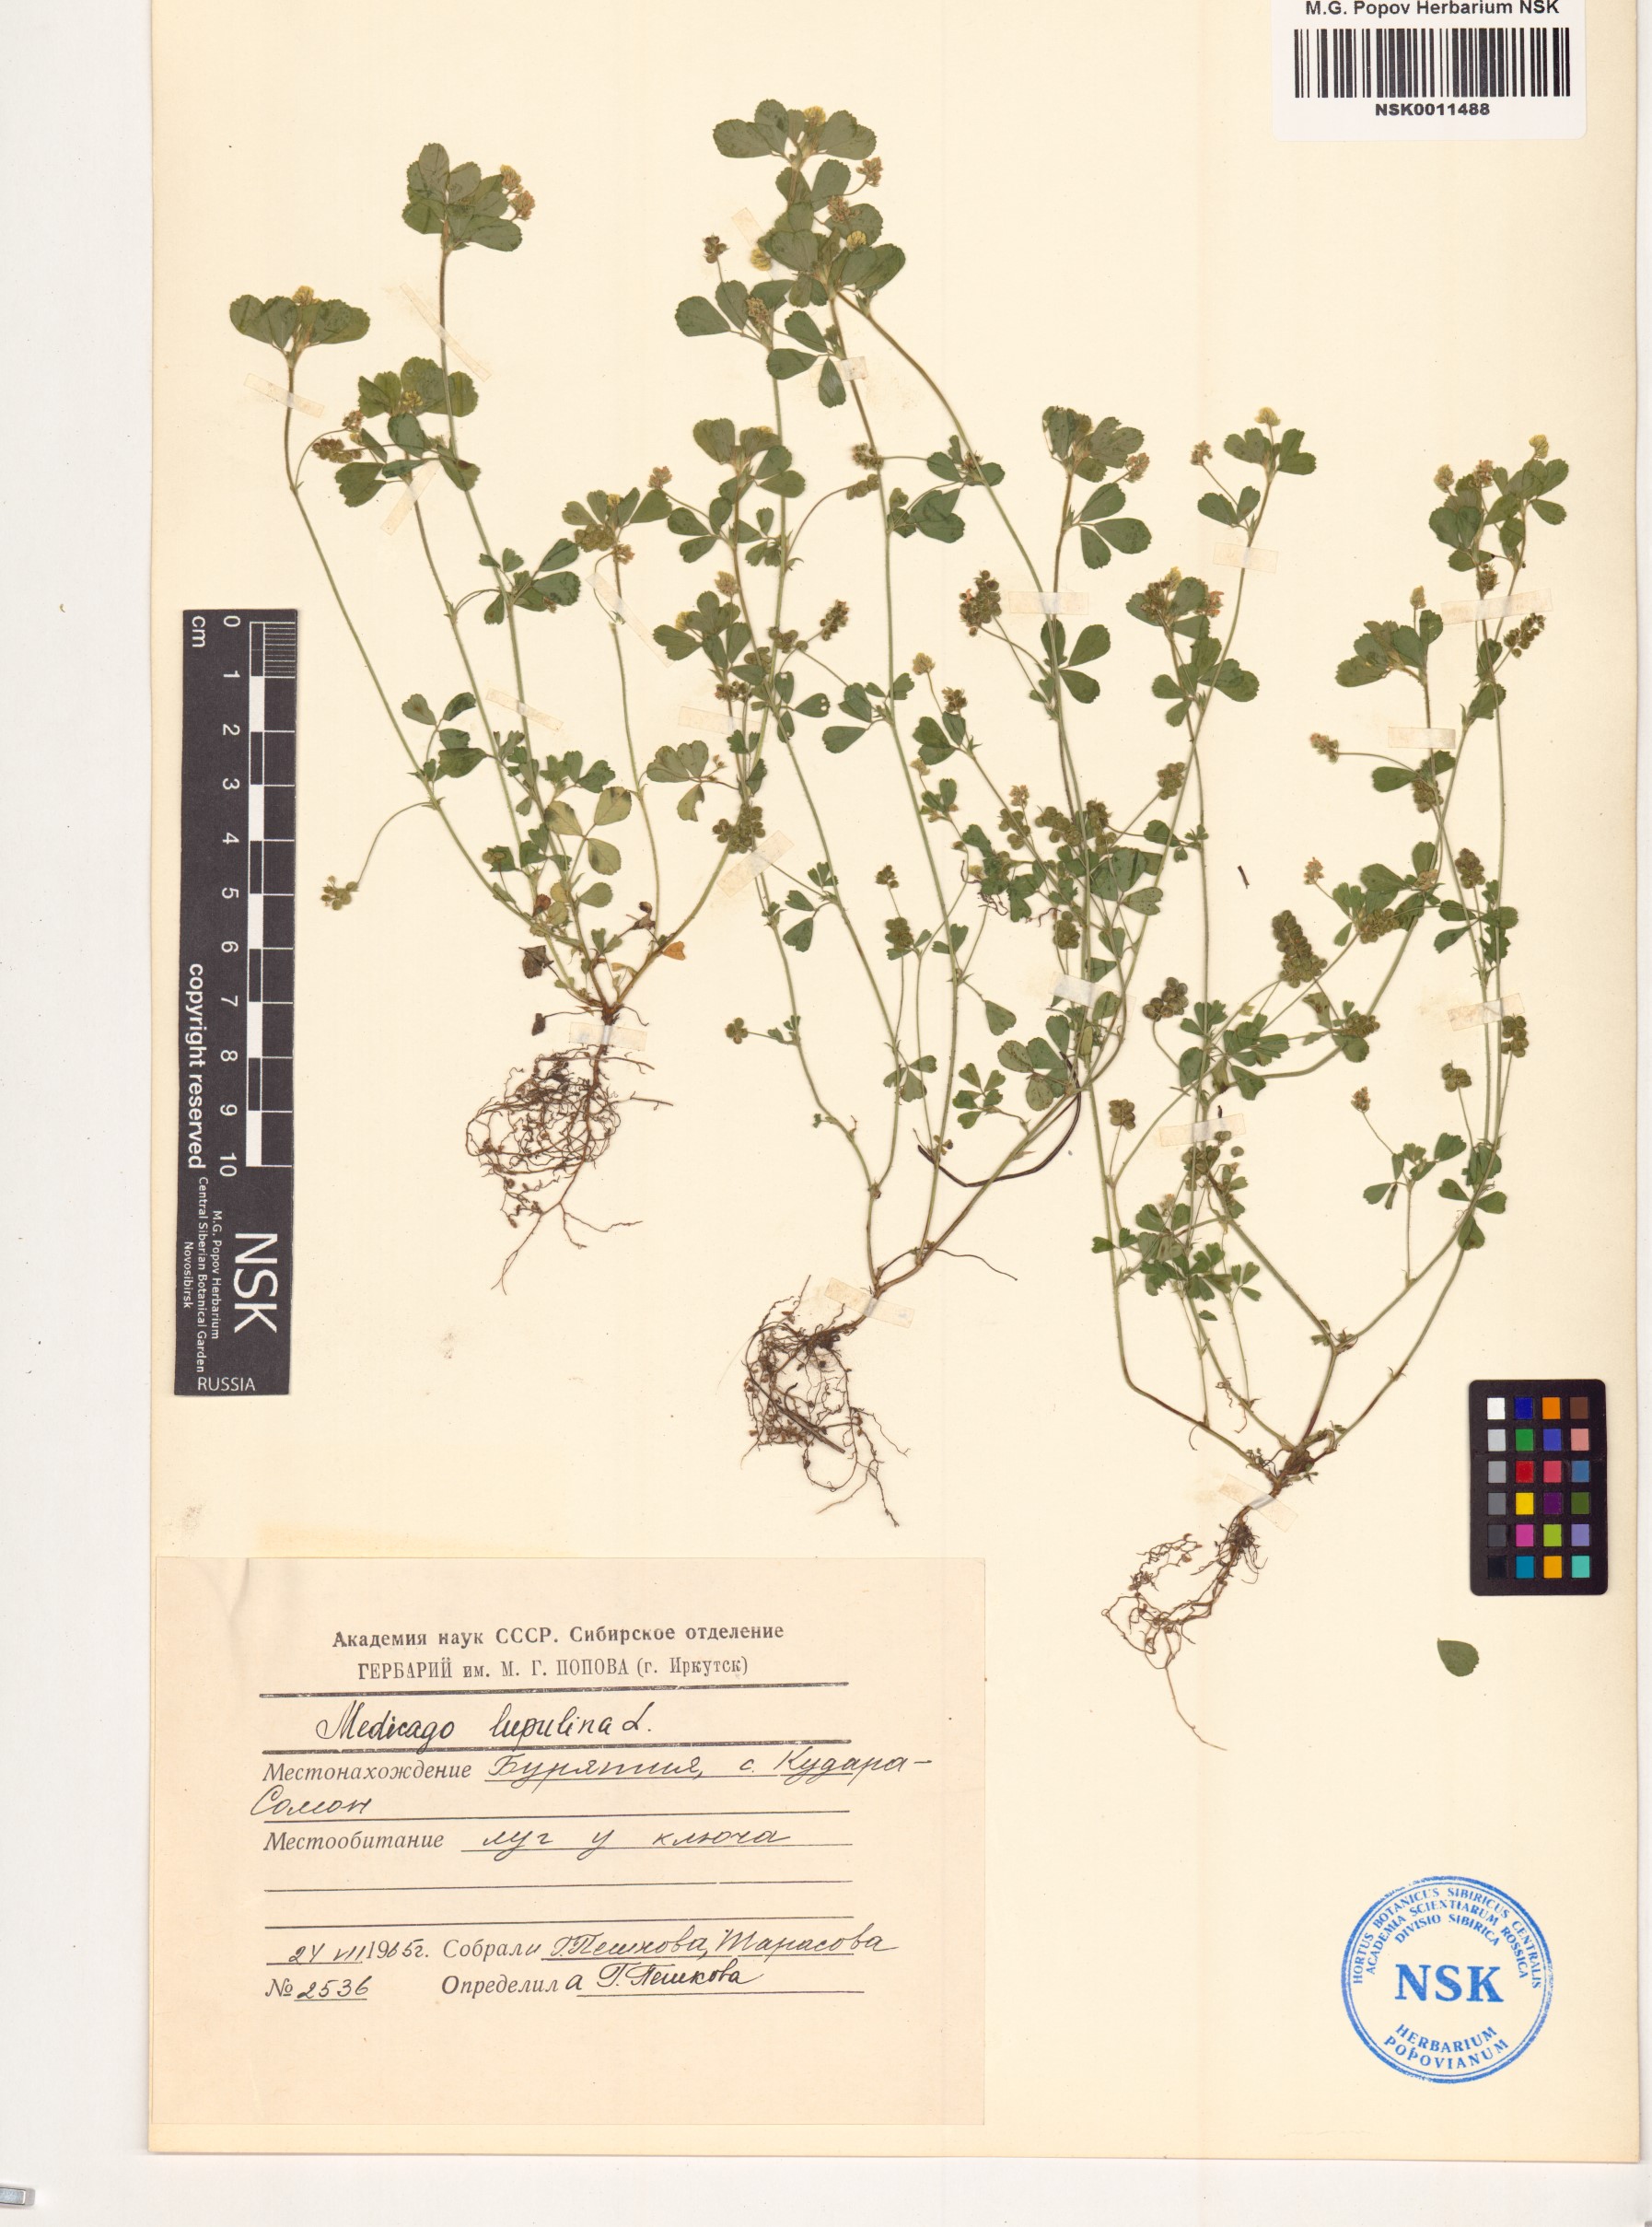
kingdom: Plantae
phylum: Tracheophyta
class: Magnoliopsida
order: Fabales
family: Fabaceae
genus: Medicago
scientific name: Medicago lupulina
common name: Black medick
